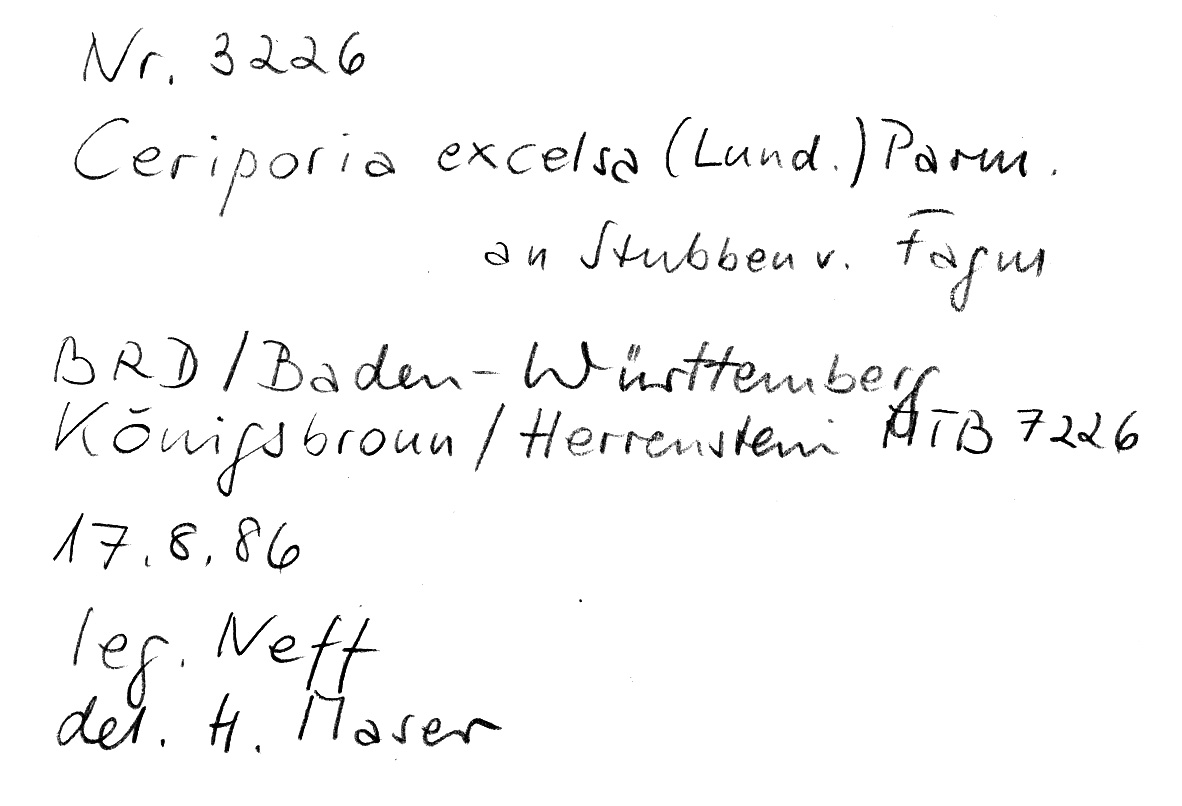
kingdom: Plantae
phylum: Tracheophyta
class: Magnoliopsida
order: Fagales
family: Fagaceae
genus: Fagus
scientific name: Fagus sylvatica
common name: Beech
